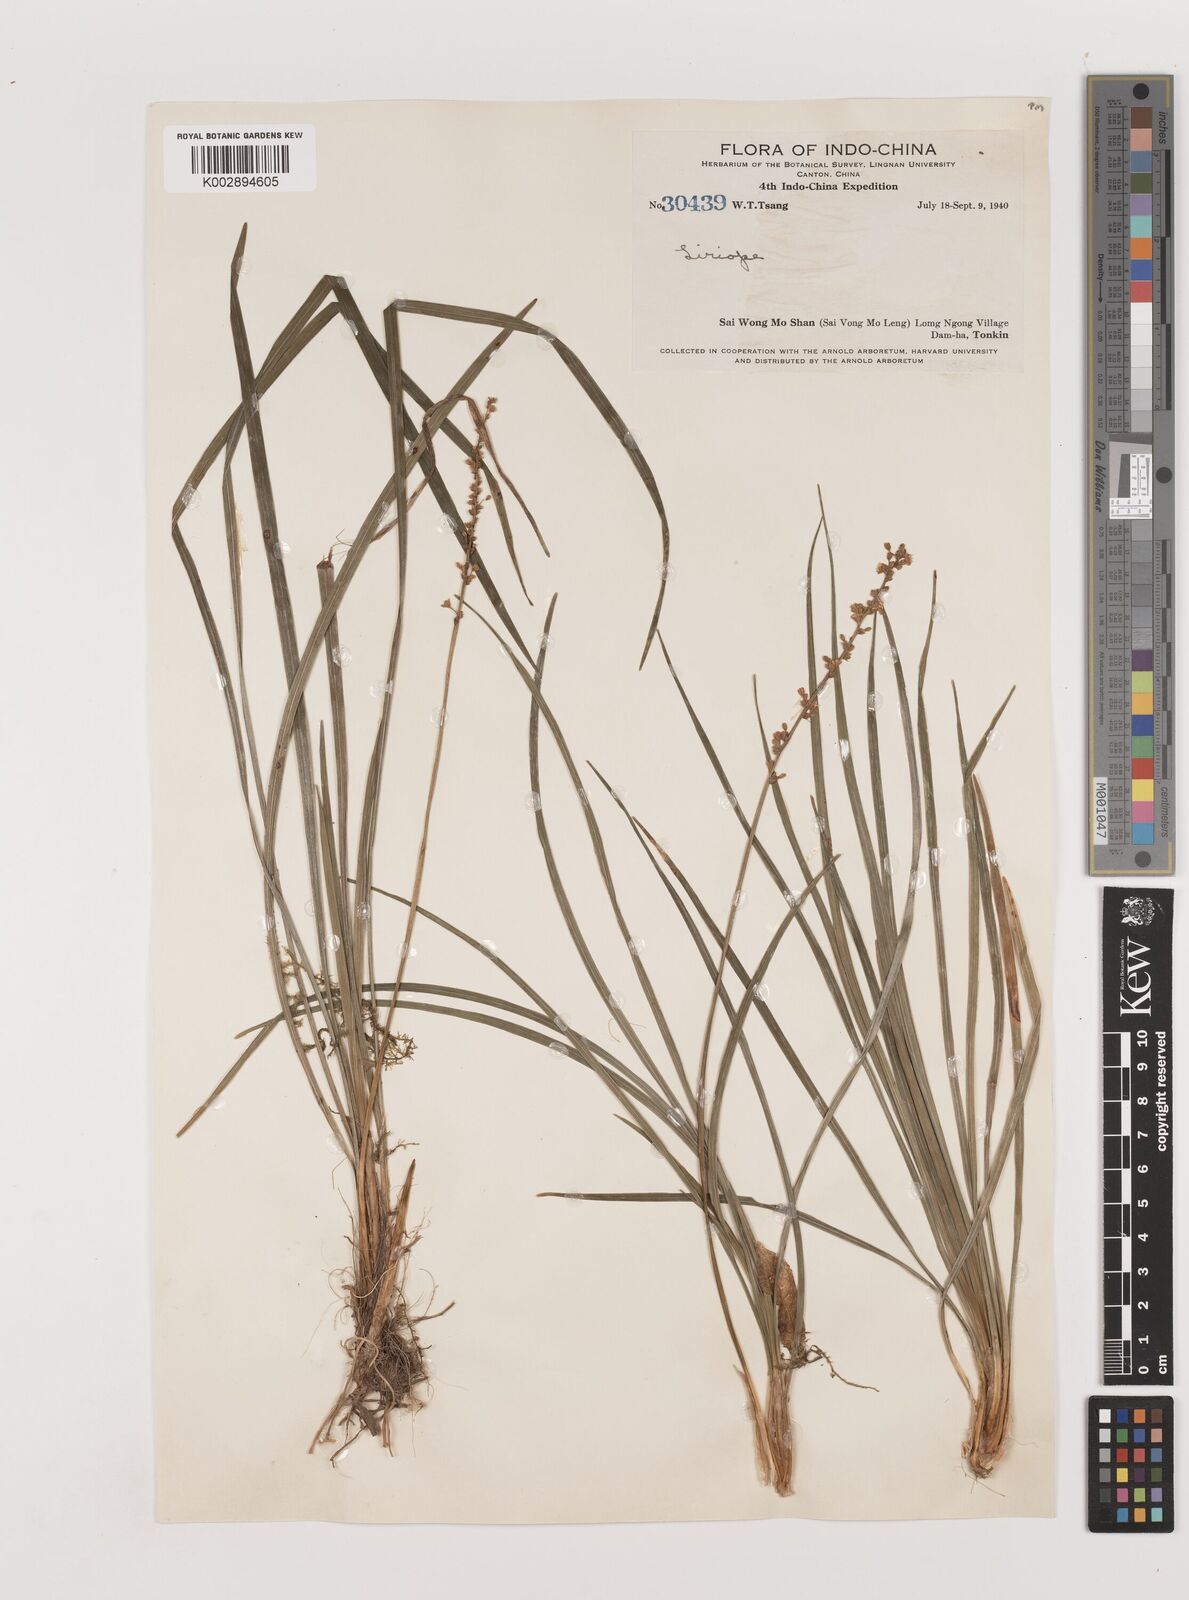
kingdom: Plantae
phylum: Tracheophyta
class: Liliopsida
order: Asparagales
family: Asparagaceae
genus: Liriope
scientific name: Liriope
